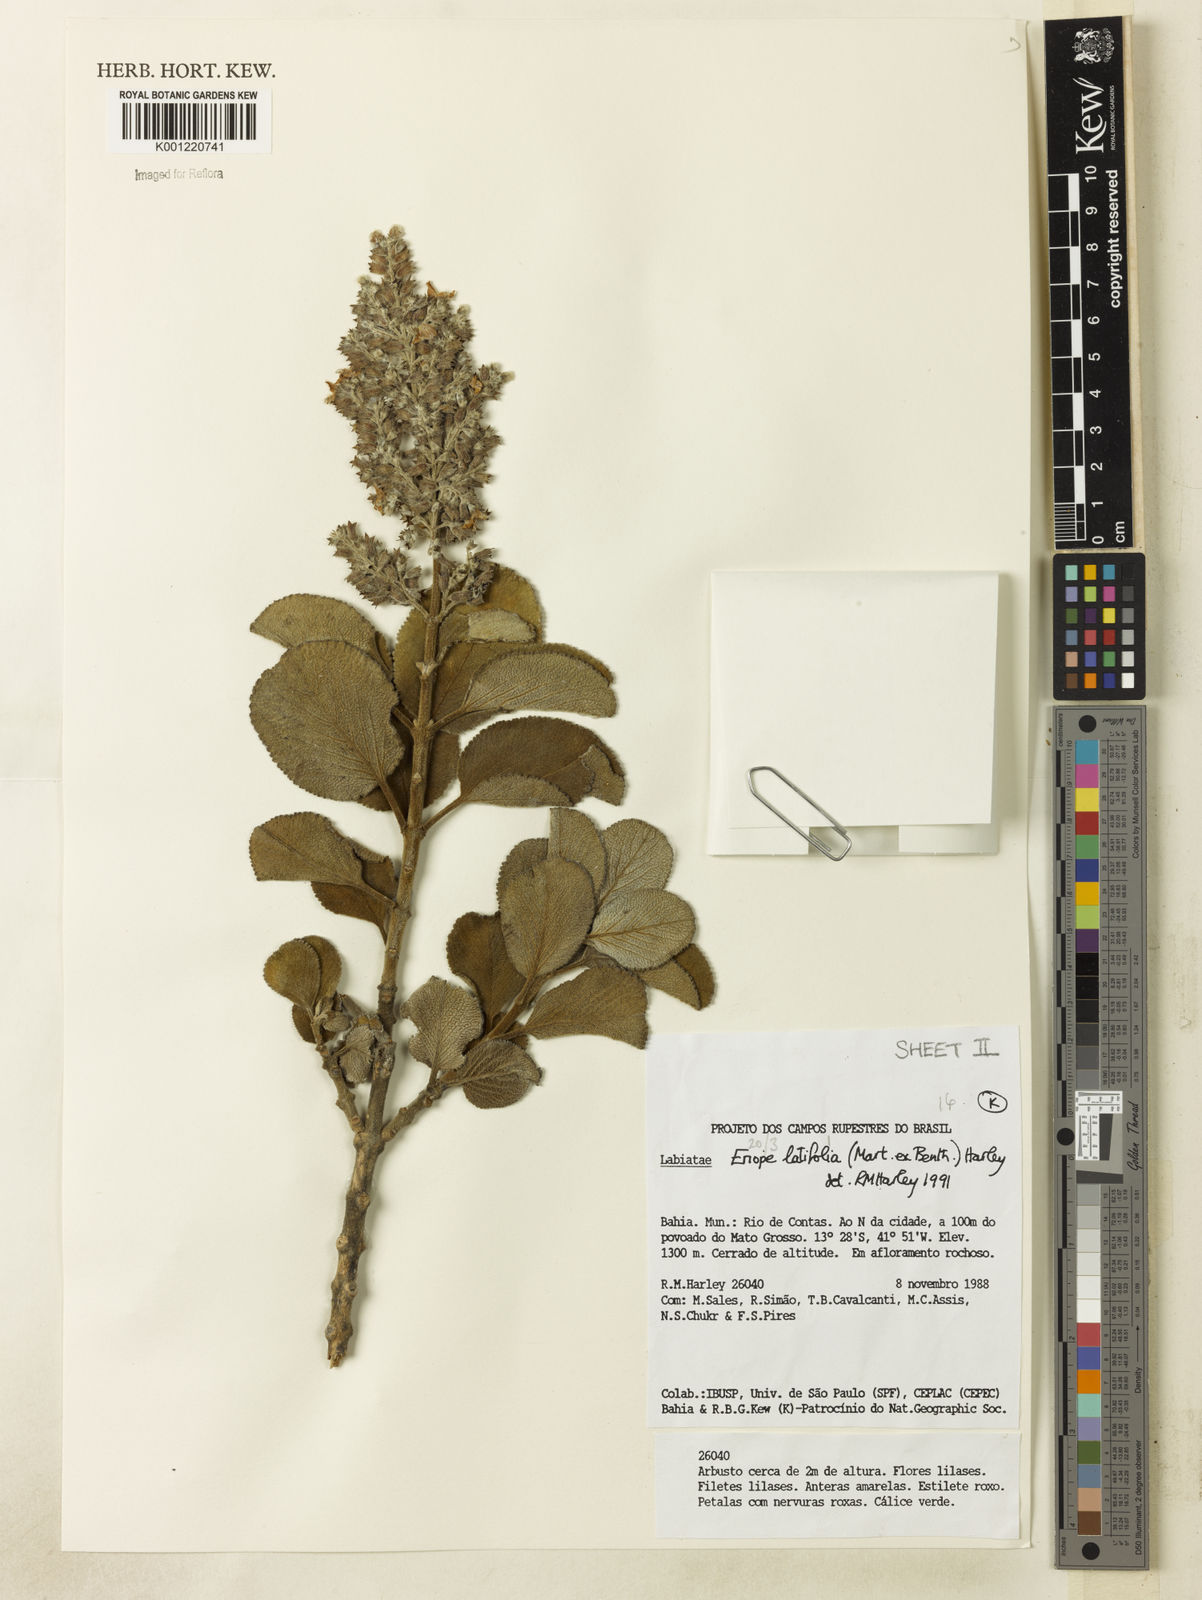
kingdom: Plantae
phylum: Tracheophyta
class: Magnoliopsida
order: Lamiales
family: Lamiaceae
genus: Eriope
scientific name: Eriope latifolia
